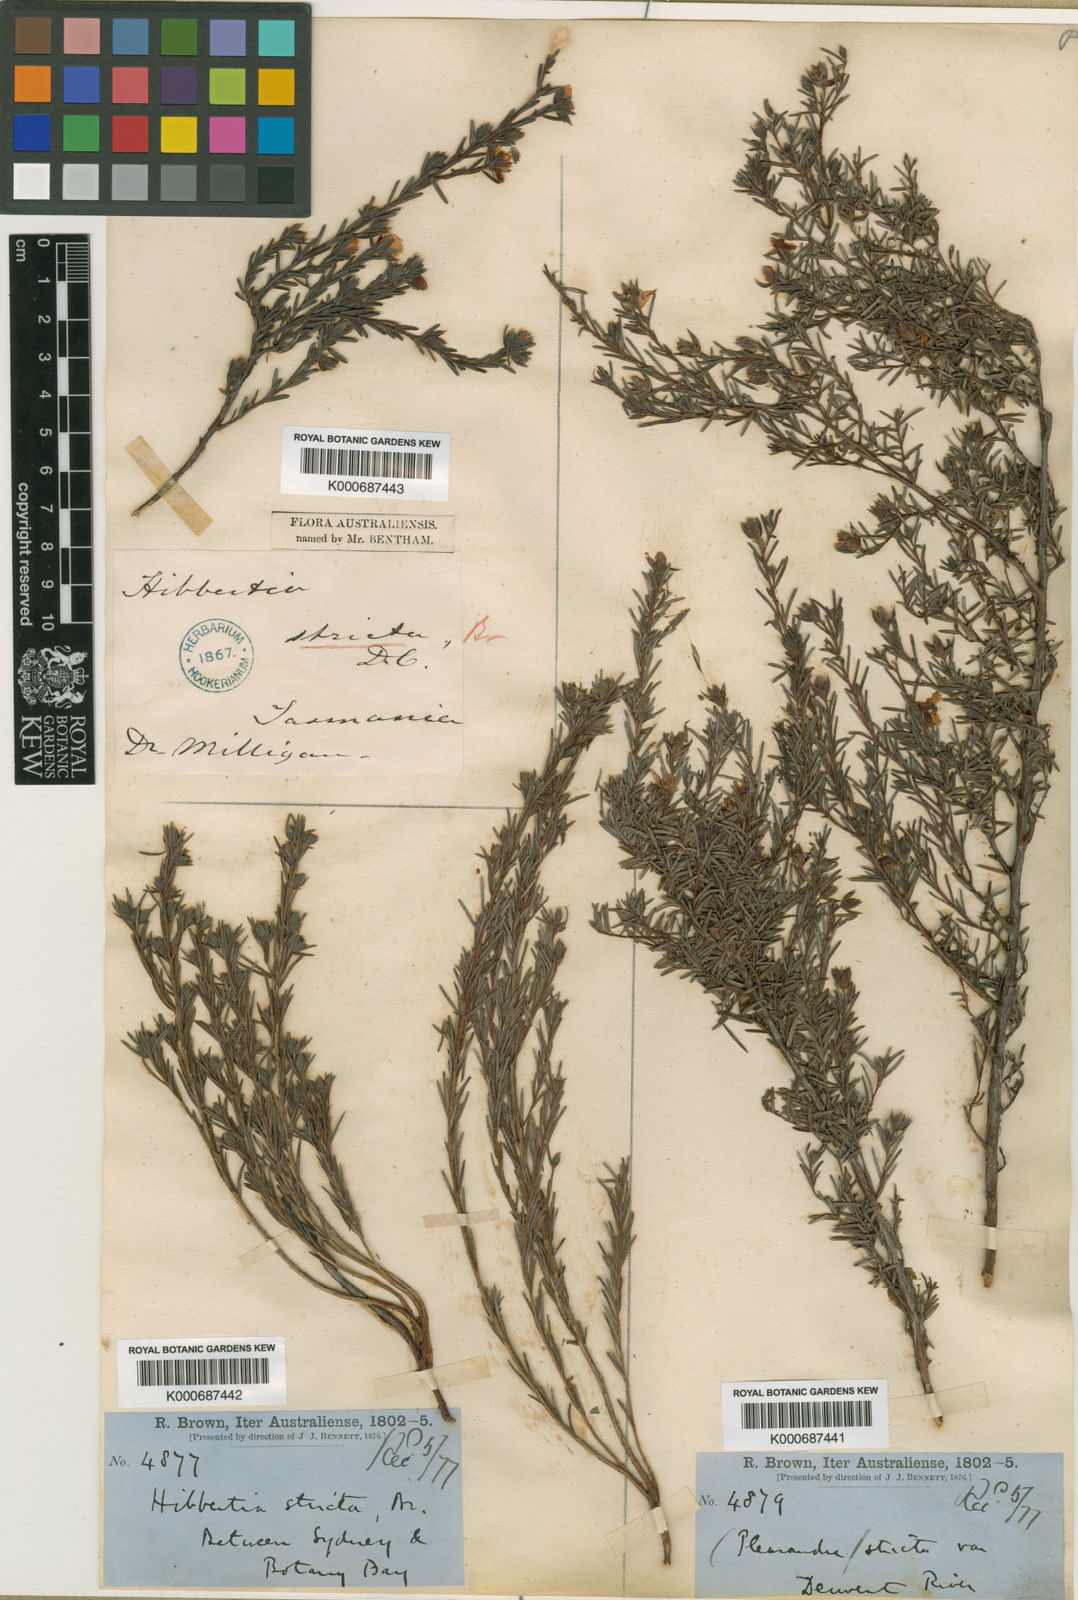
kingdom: Plantae
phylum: Tracheophyta
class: Magnoliopsida
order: Dilleniales
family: Dilleniaceae
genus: Hibbertia
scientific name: Hibbertia stricta
